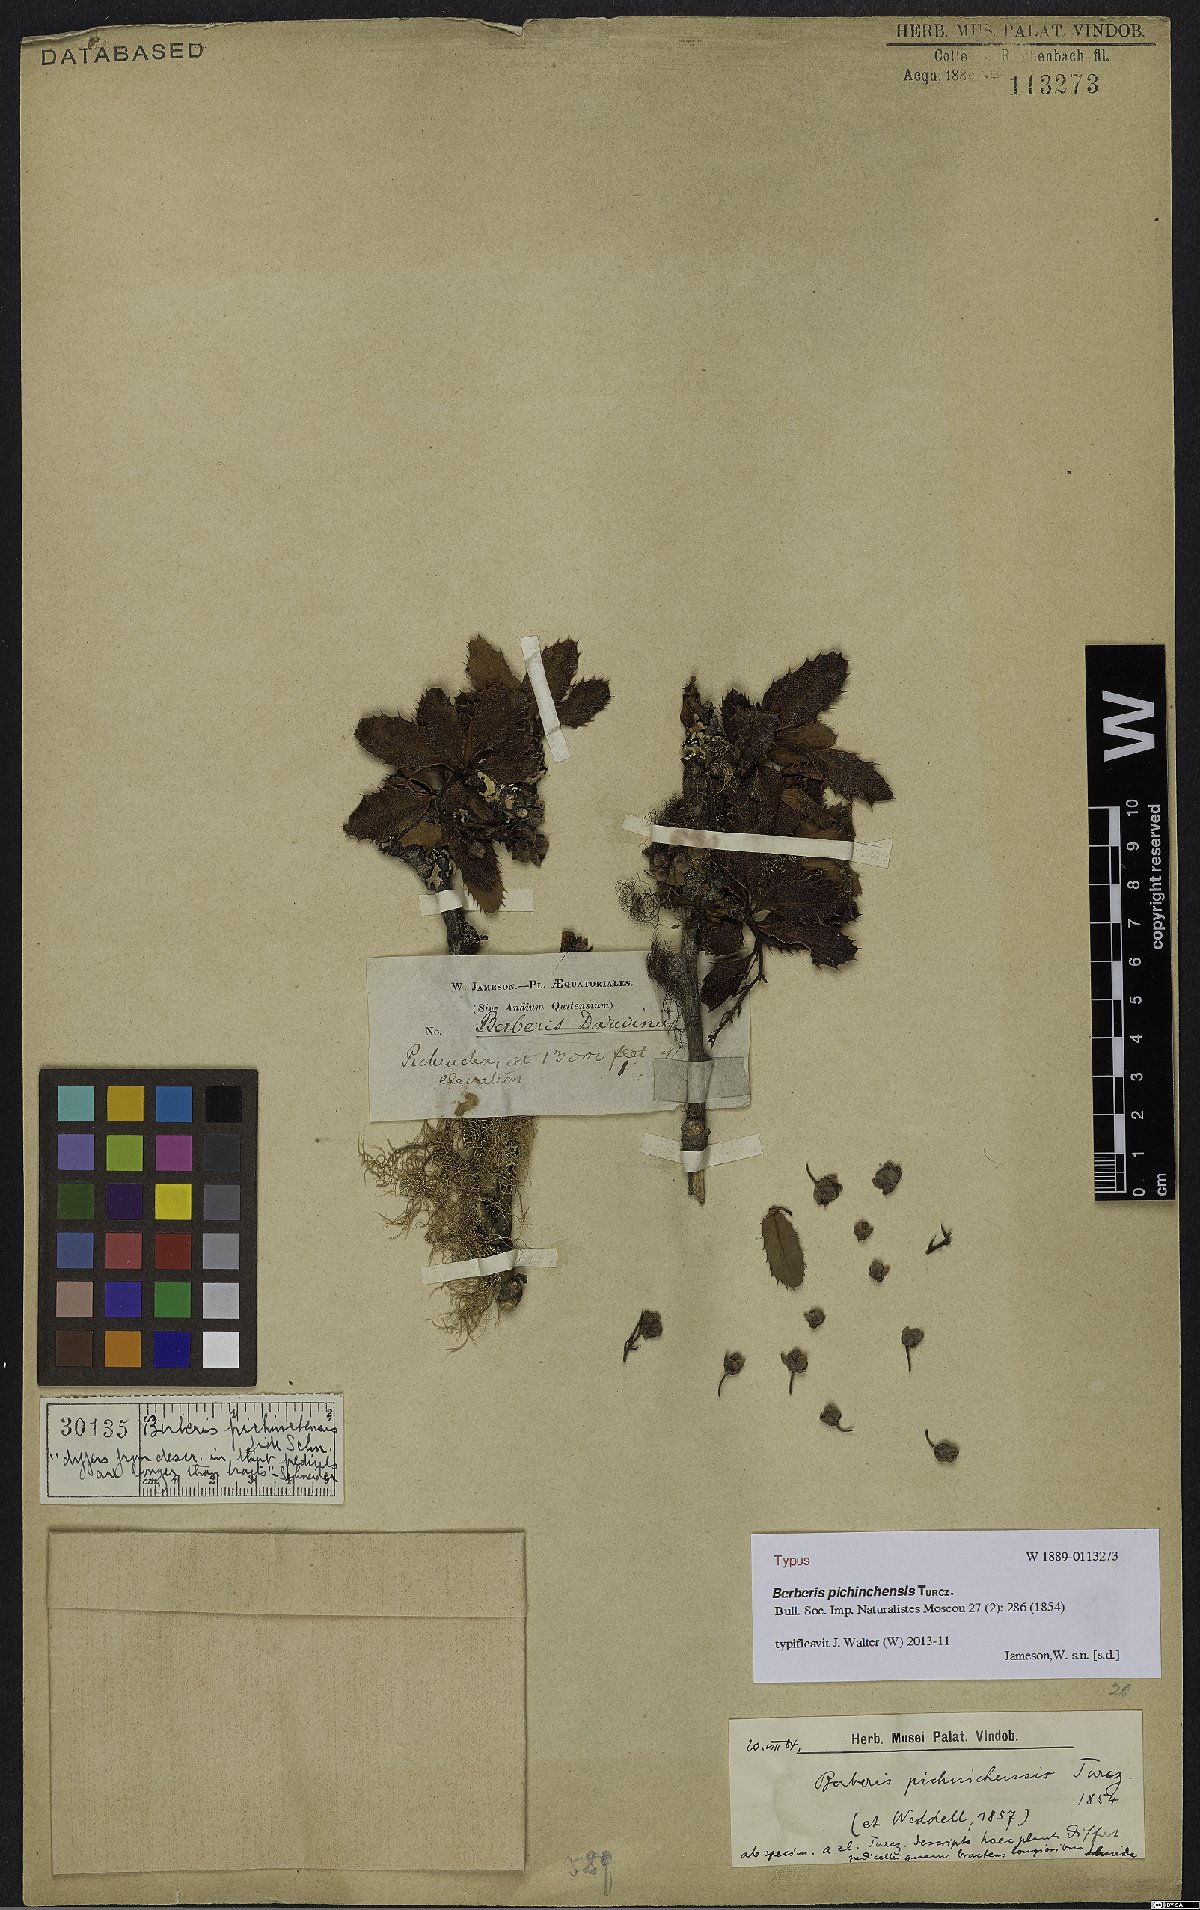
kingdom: Plantae
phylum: Tracheophyta
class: Magnoliopsida
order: Ranunculales
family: Berberidaceae
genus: Berberis
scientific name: Berberis pichinchensis
